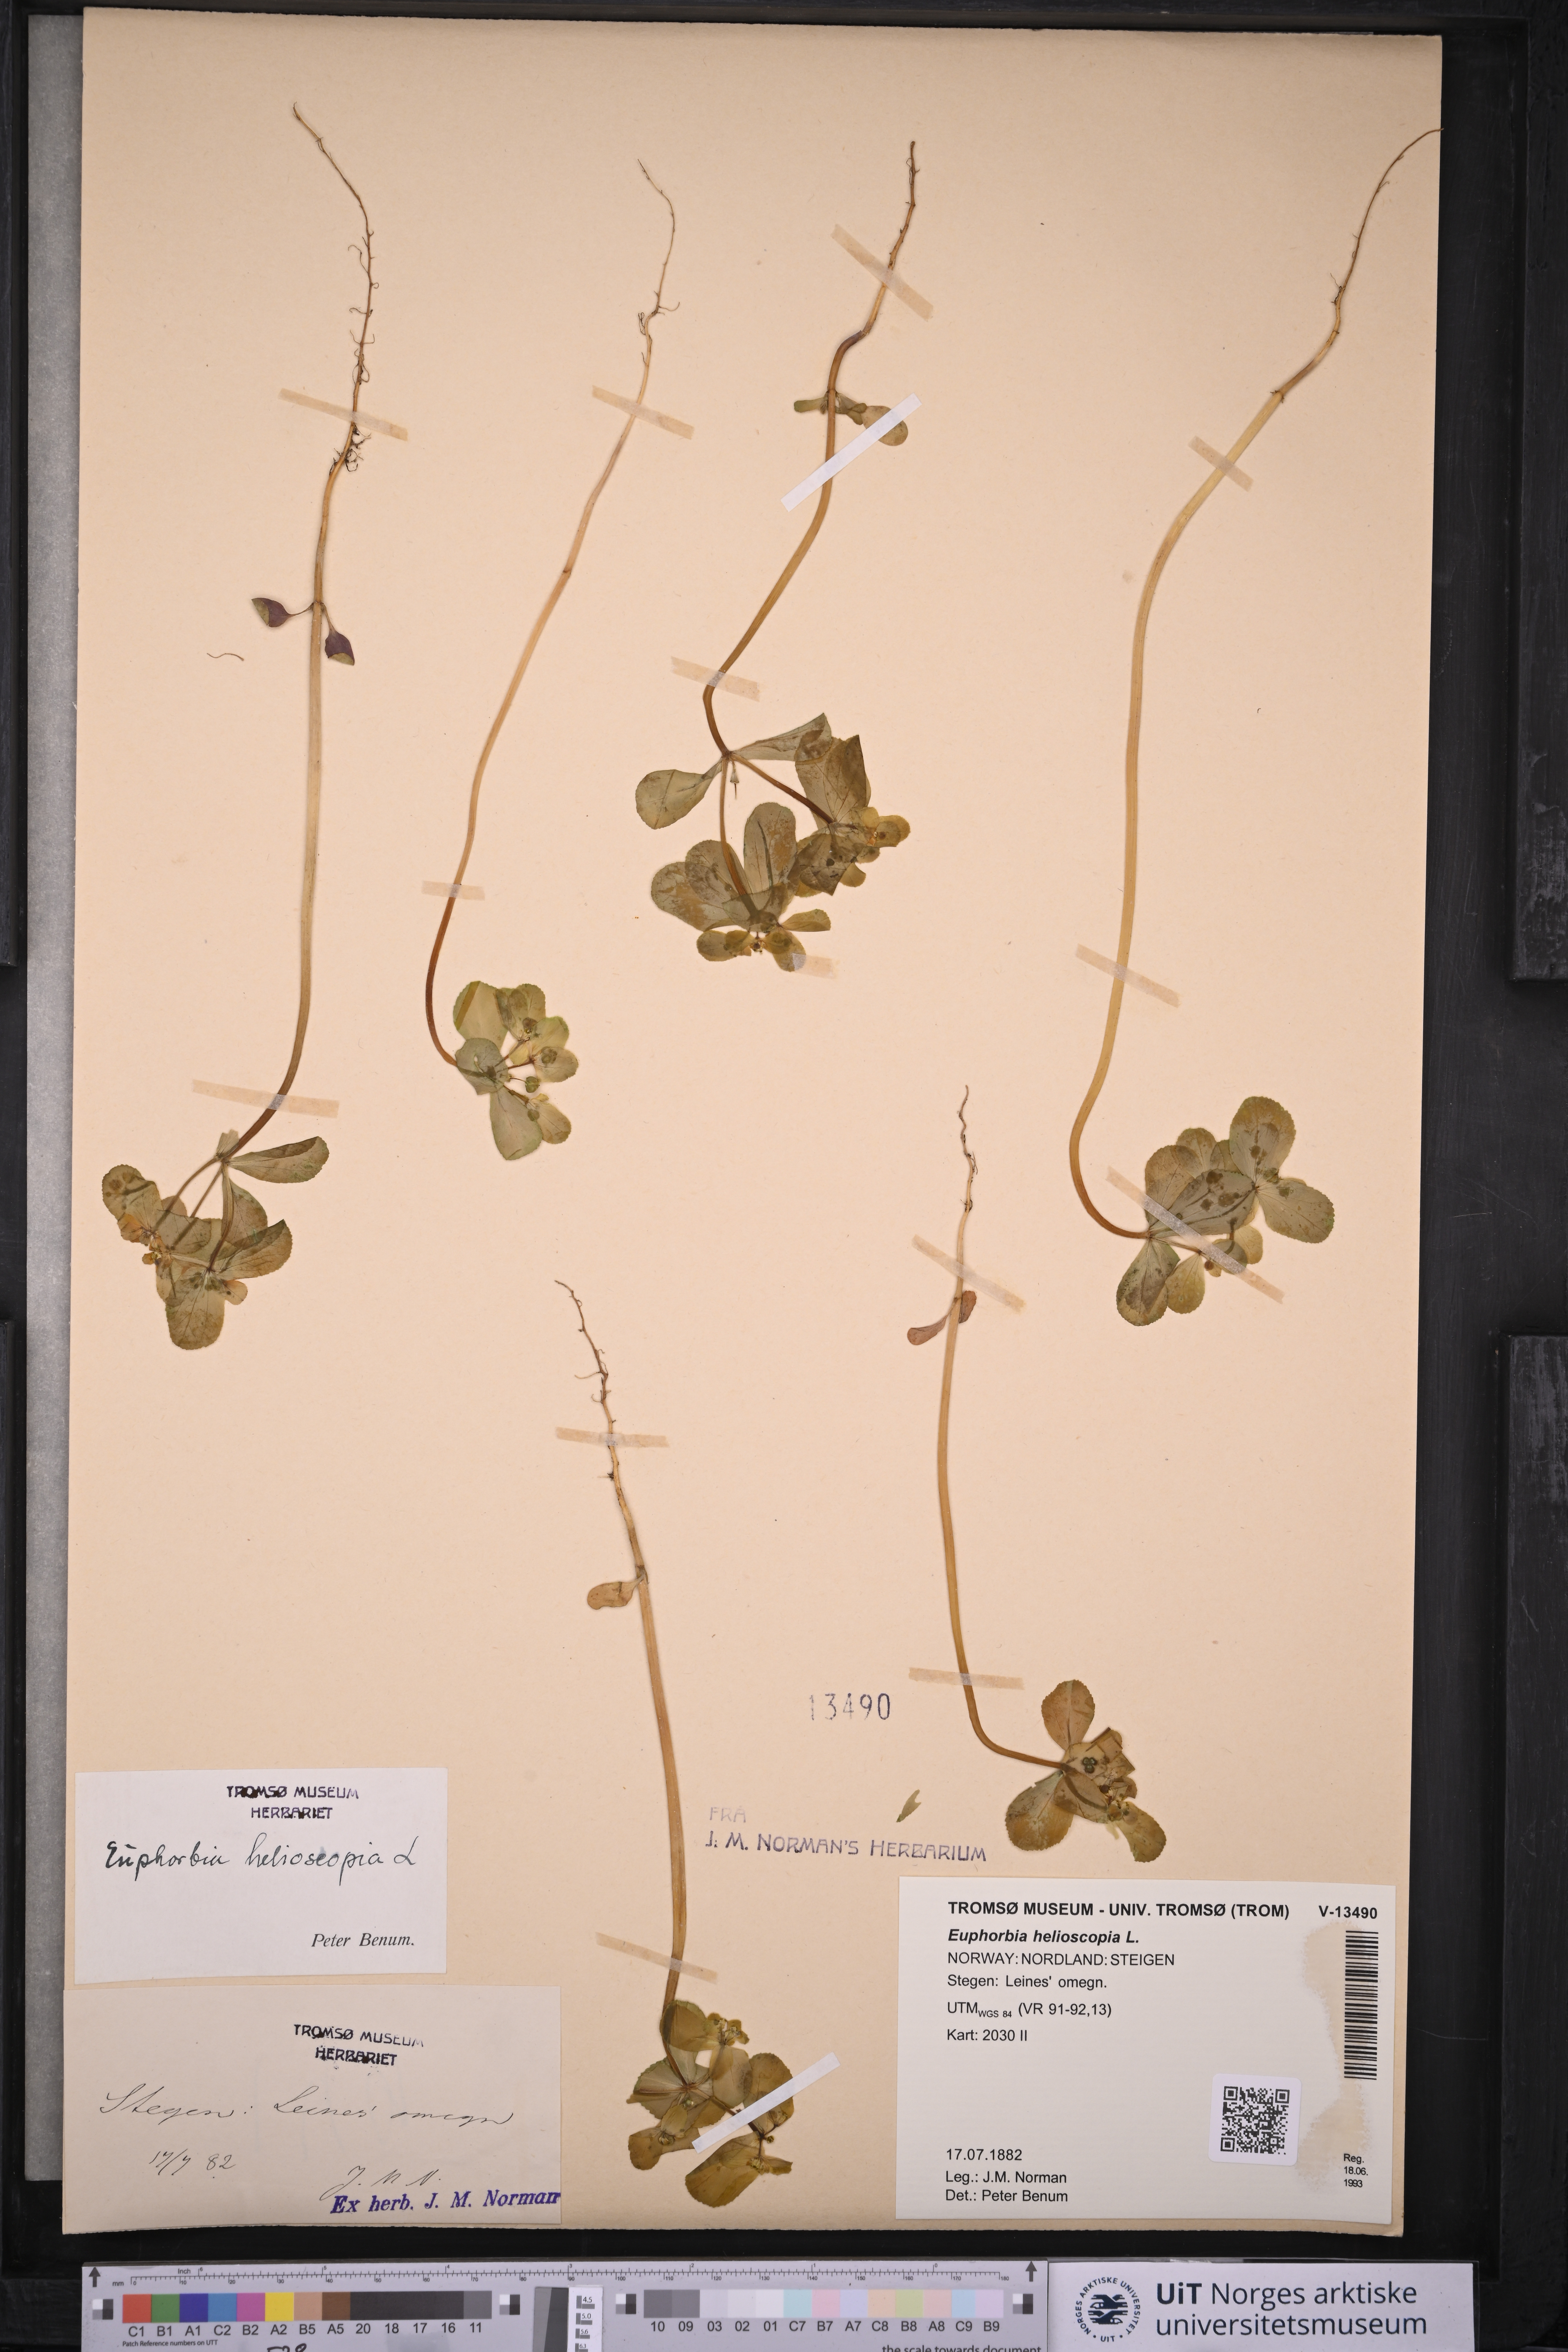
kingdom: Plantae
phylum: Tracheophyta
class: Magnoliopsida
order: Malpighiales
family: Euphorbiaceae
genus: Euphorbia
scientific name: Euphorbia helioscopia
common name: Sun spurge
